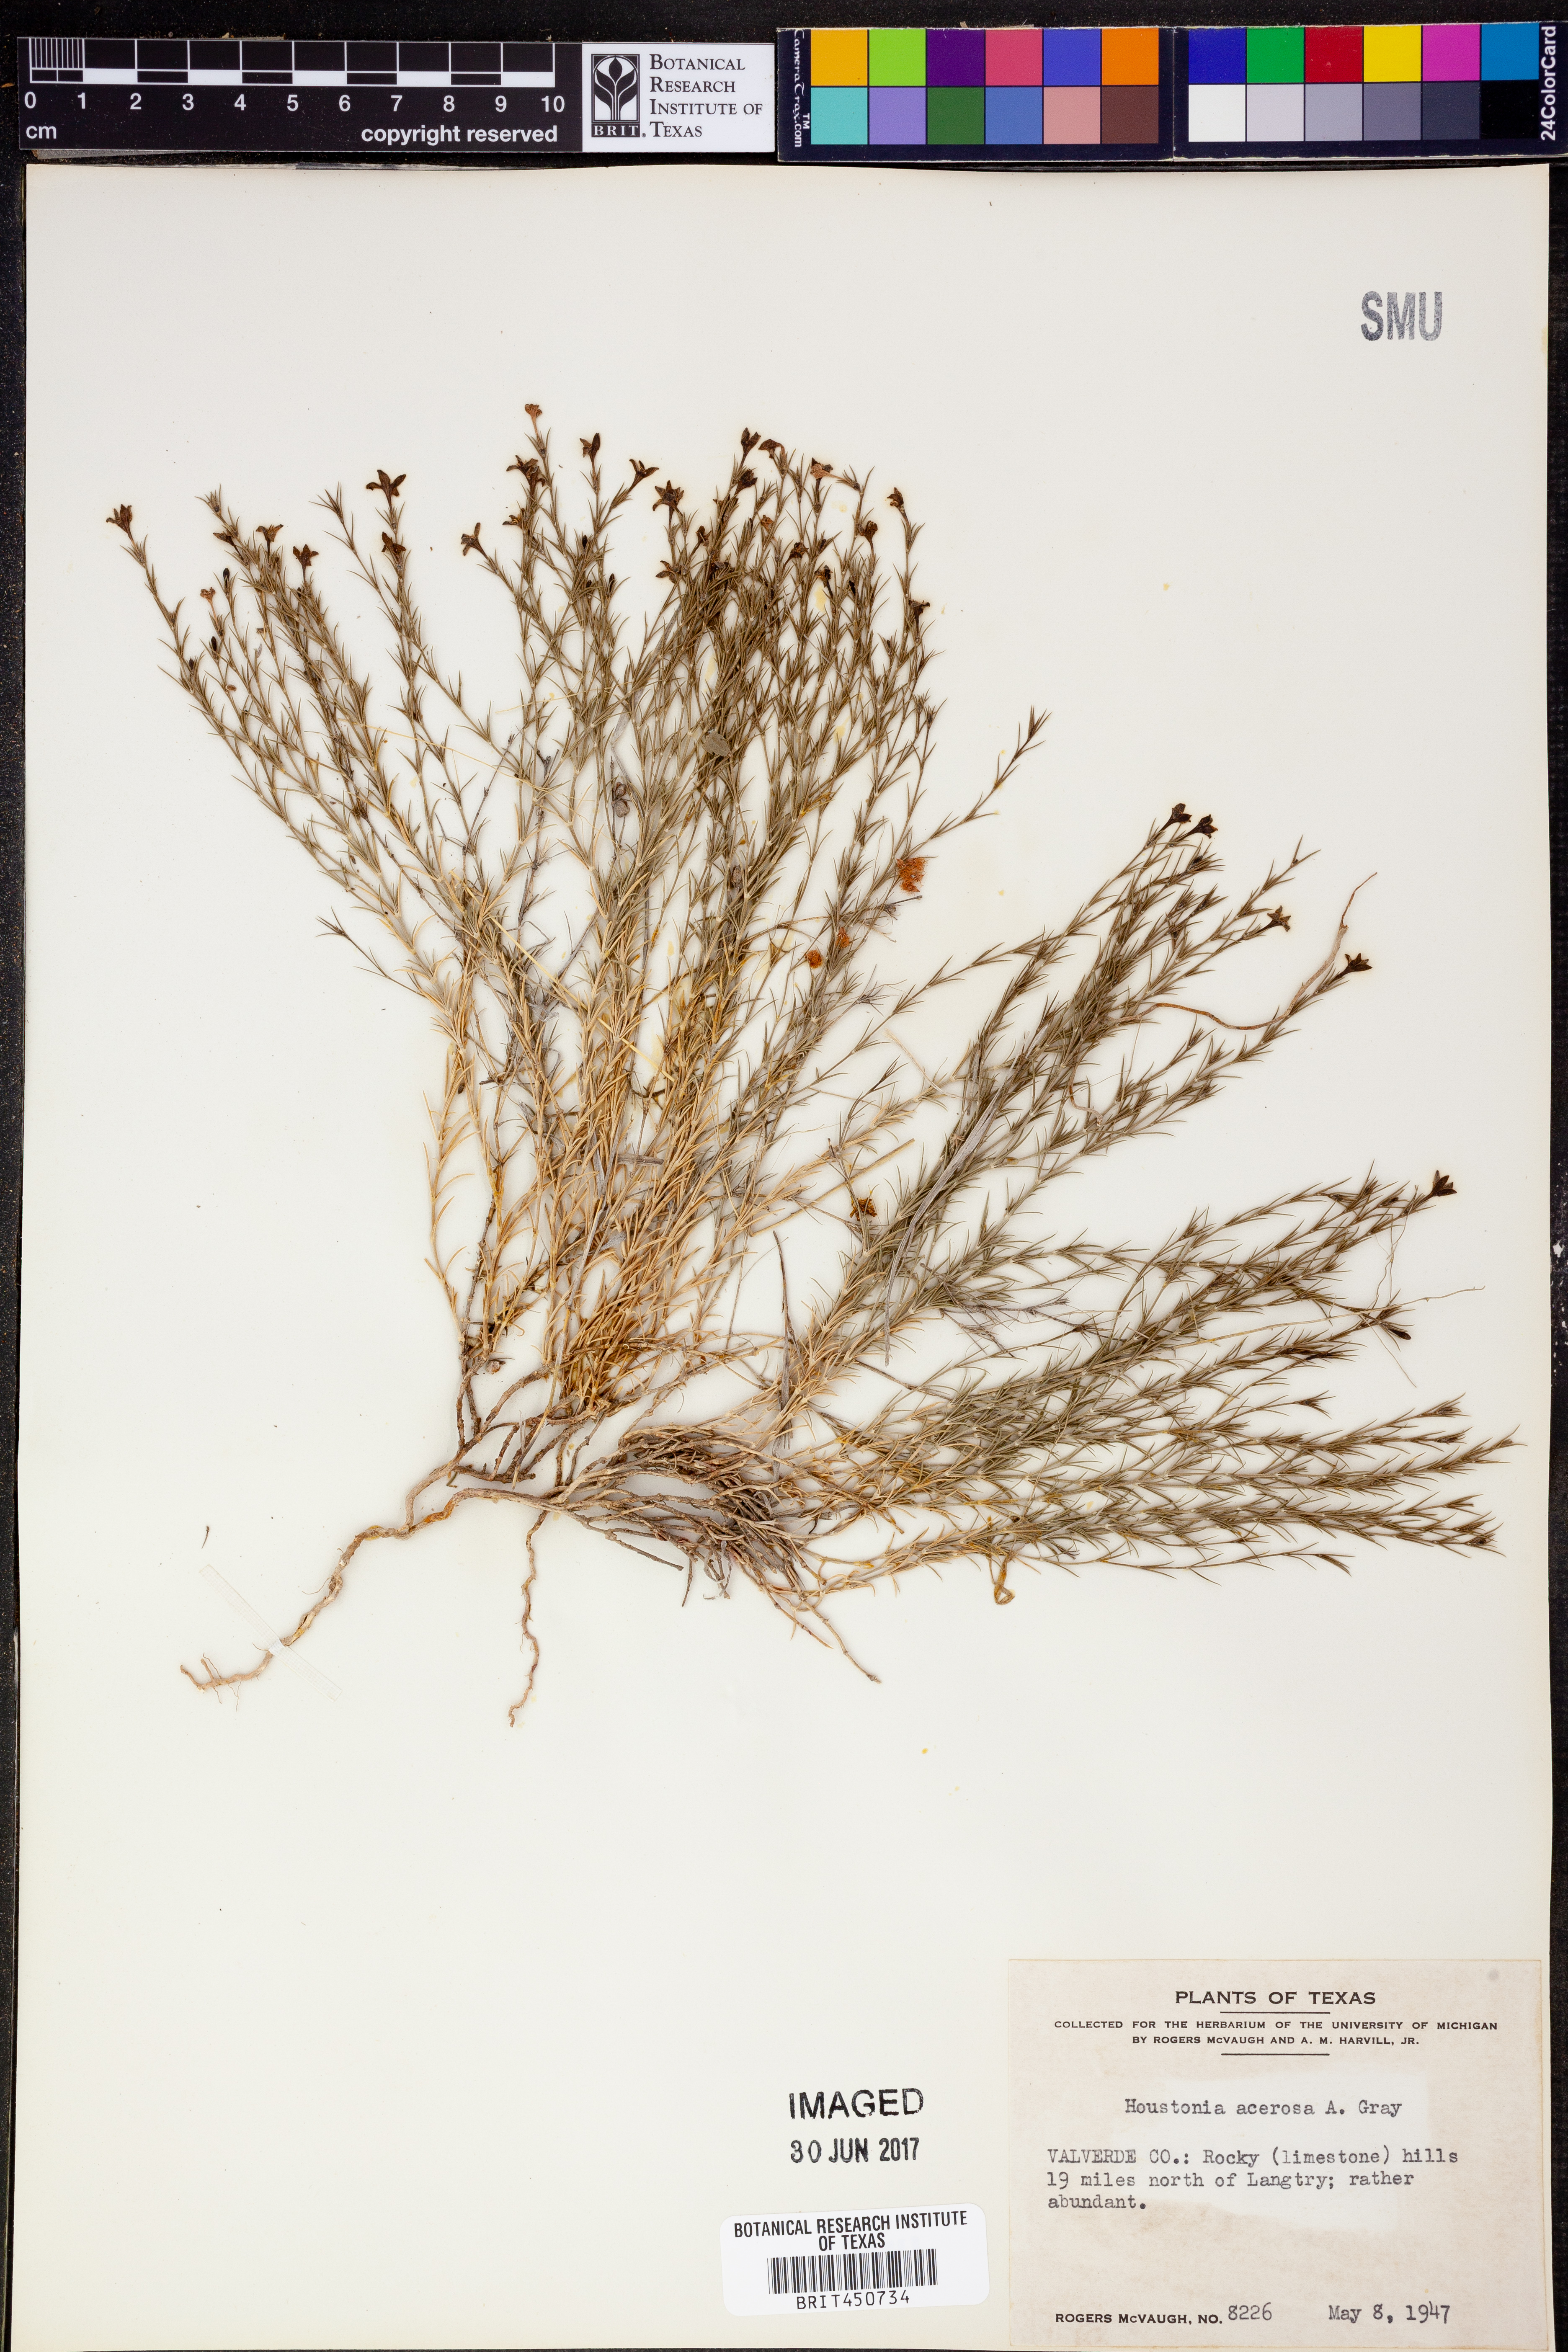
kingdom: Plantae
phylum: Tracheophyta
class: Magnoliopsida
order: Gentianales
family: Rubiaceae
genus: Houstonia
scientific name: Houstonia acerosa
